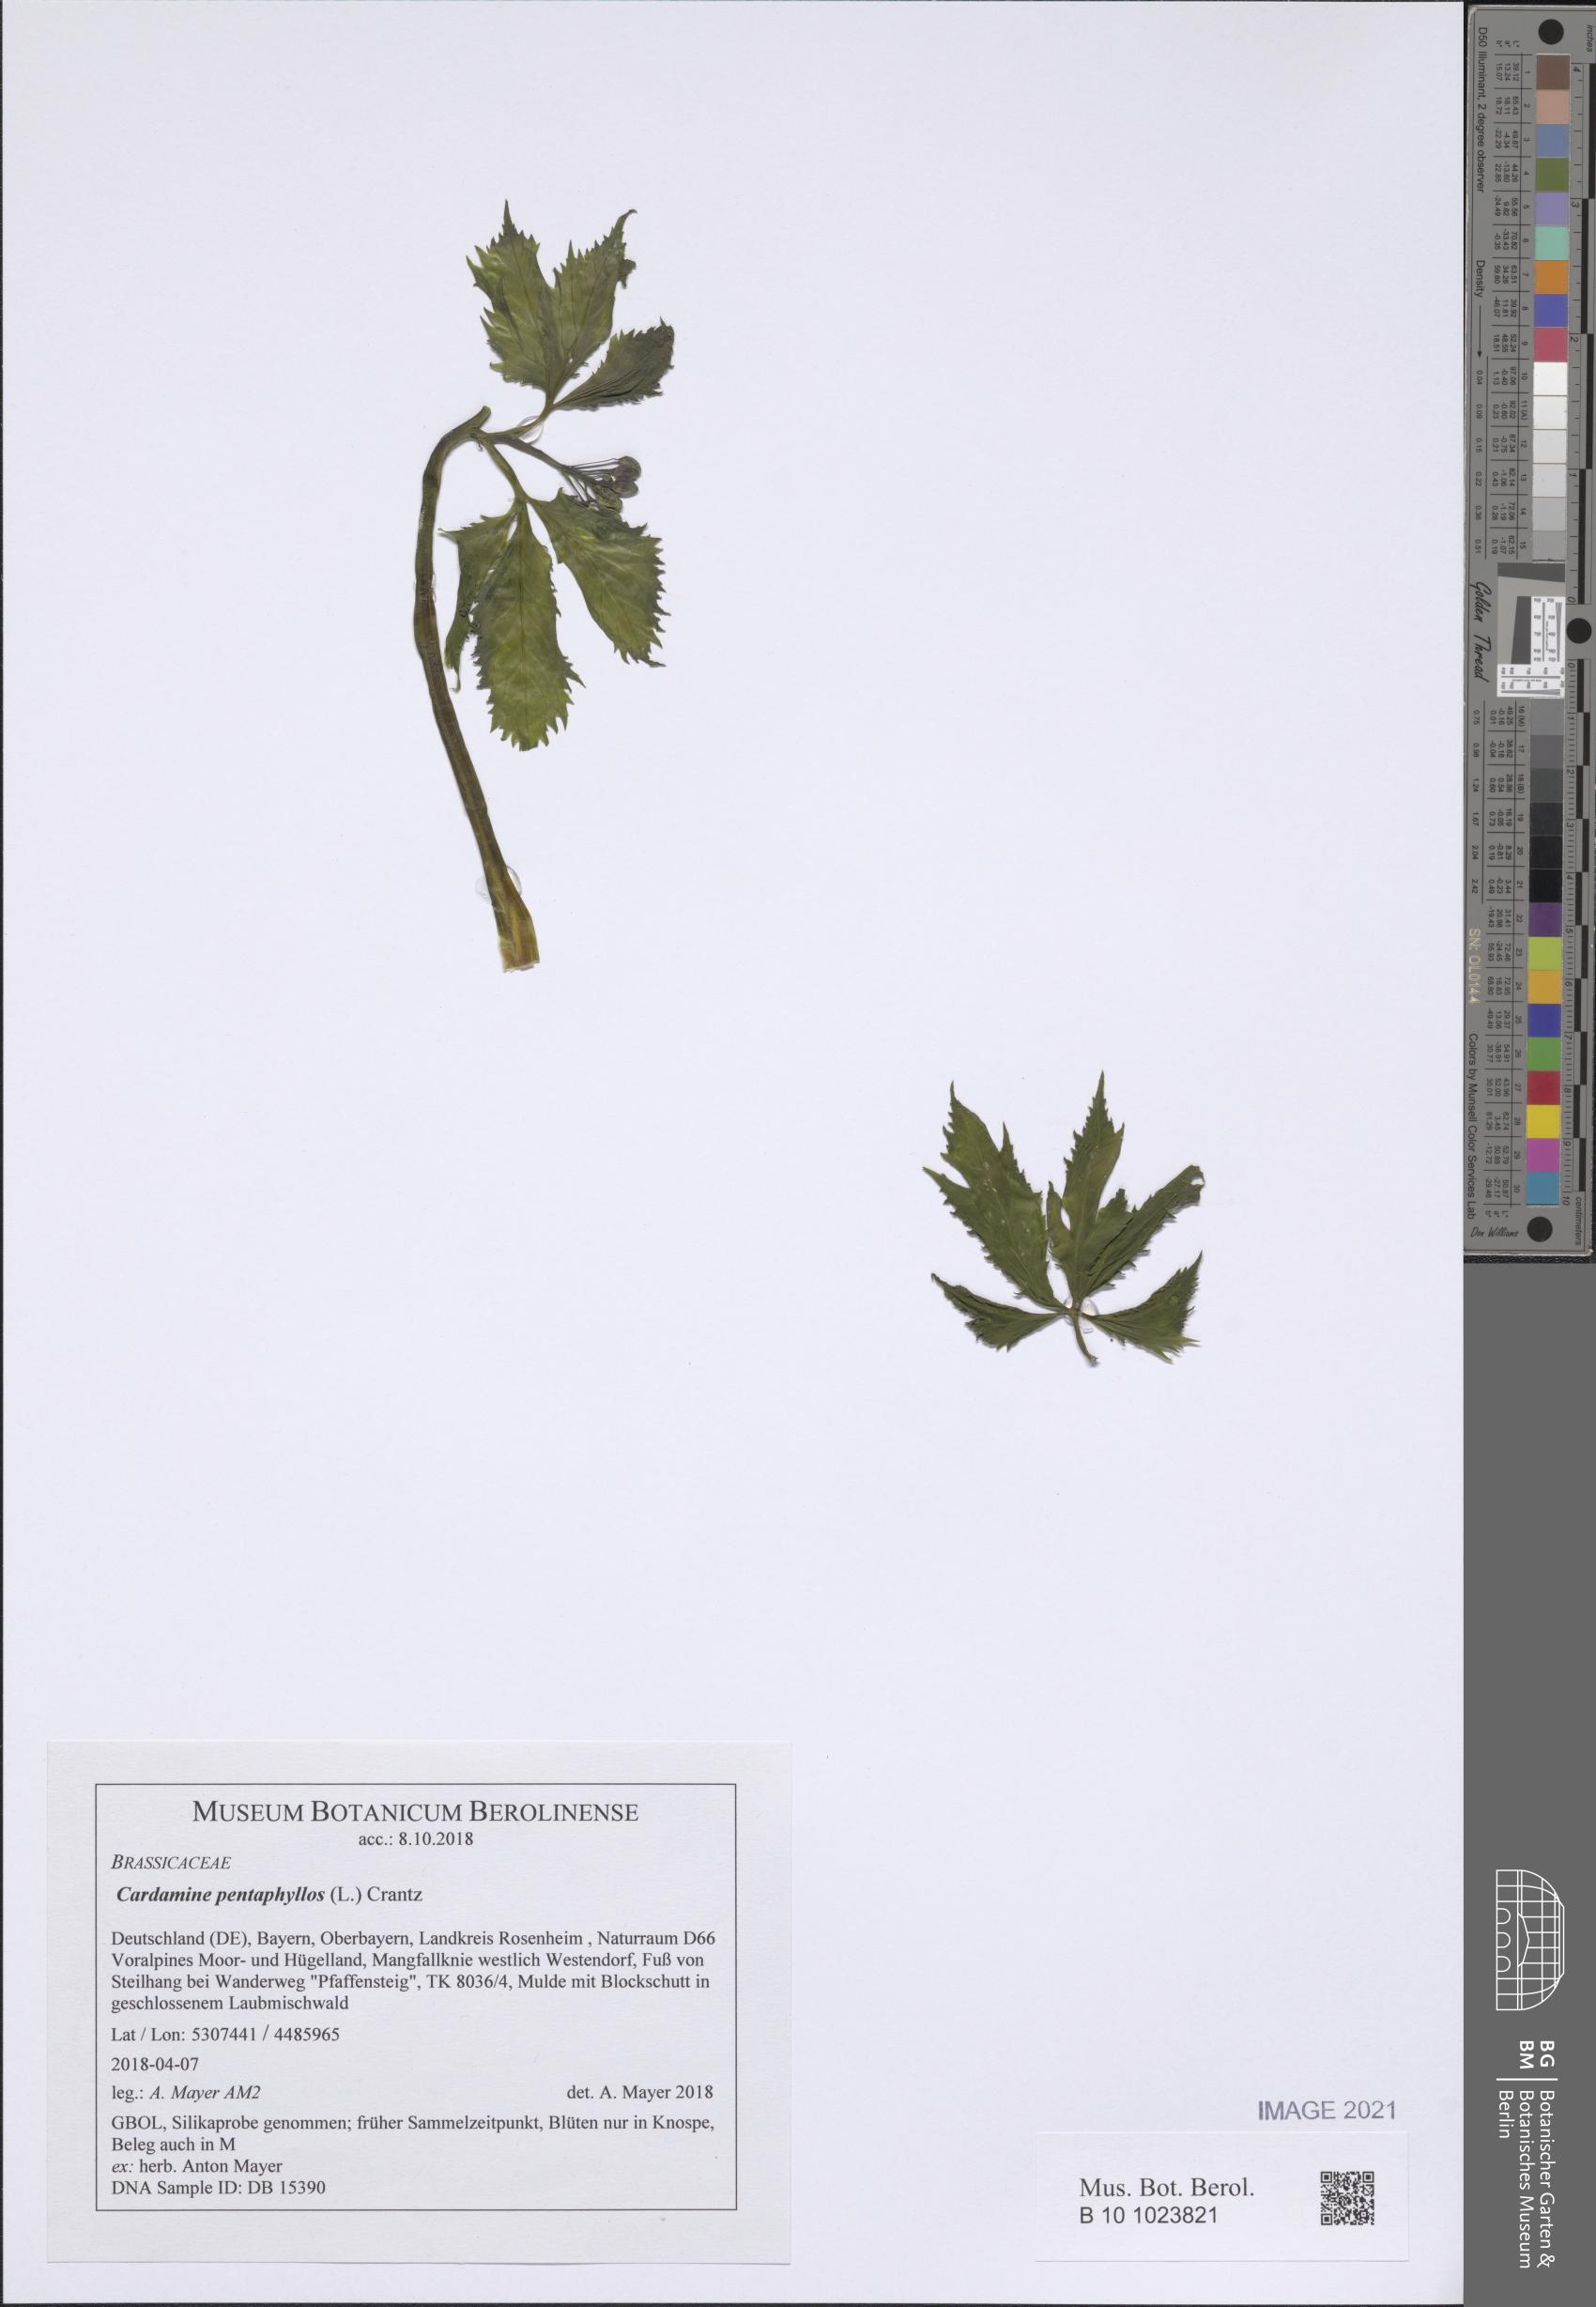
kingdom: Plantae
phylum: Tracheophyta
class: Magnoliopsida
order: Brassicales
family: Brassicaceae
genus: Cardamine
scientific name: Cardamine pentaphyllos
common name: Five-leaflet bitter-cress
